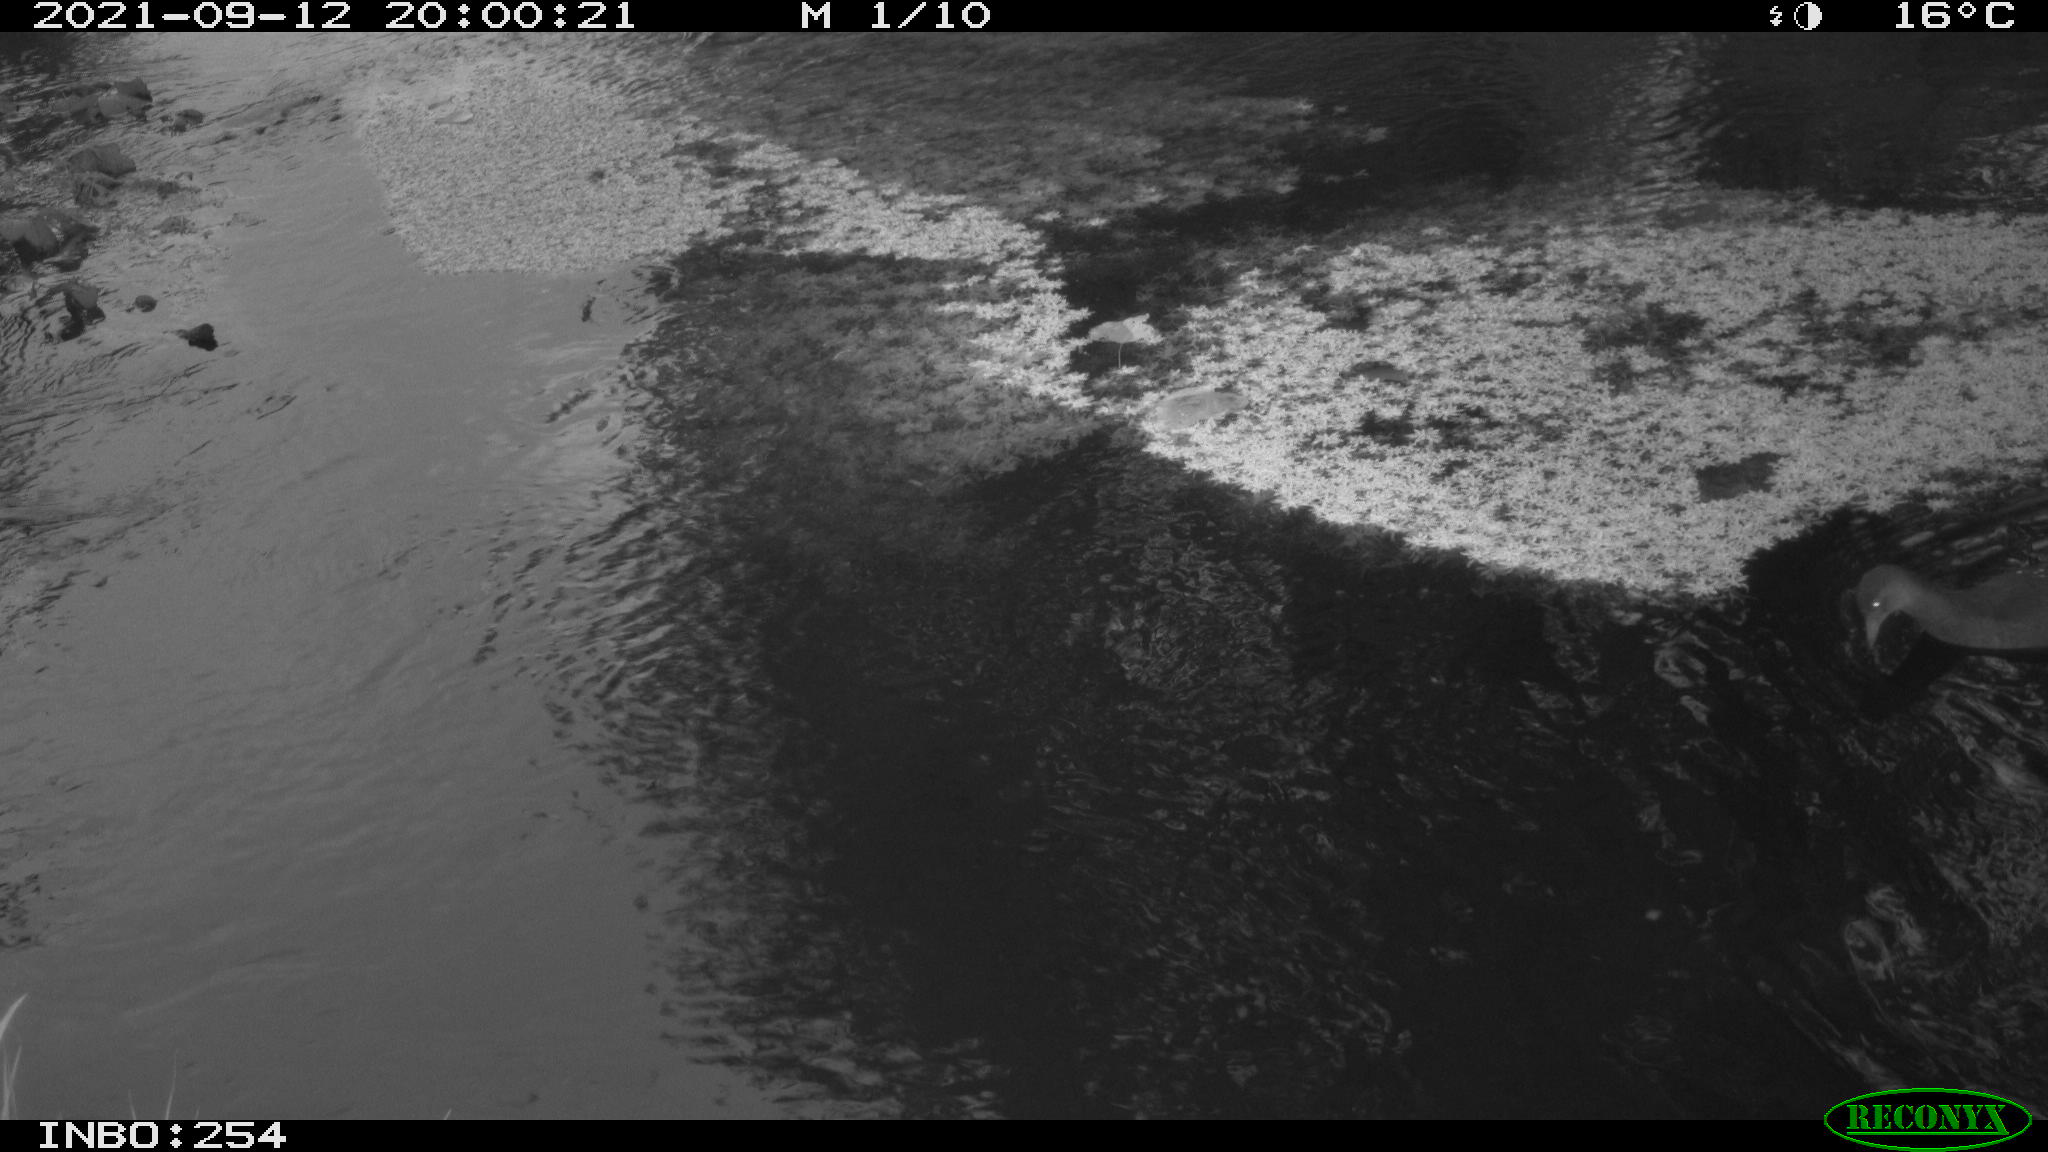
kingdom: Animalia
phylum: Chordata
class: Aves
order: Gruiformes
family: Rallidae
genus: Gallinula
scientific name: Gallinula chloropus
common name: Common moorhen
